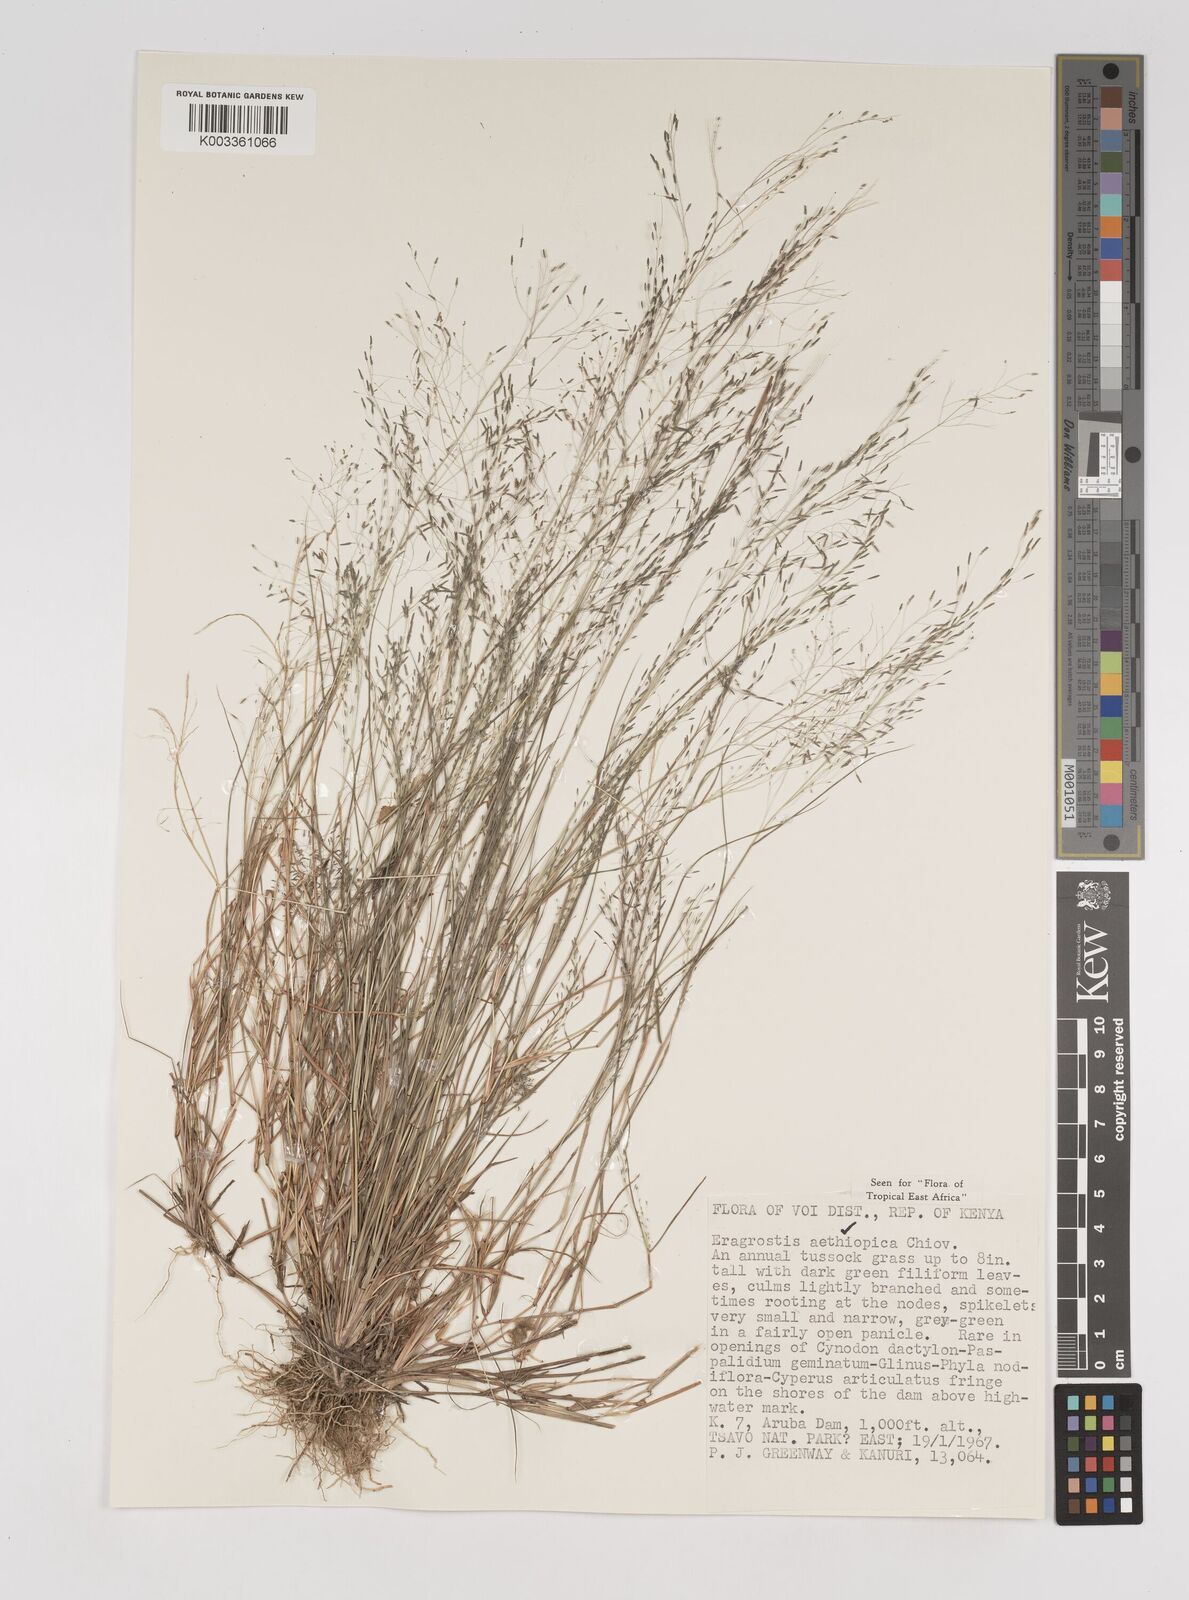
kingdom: Plantae
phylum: Tracheophyta
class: Liliopsida
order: Poales
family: Poaceae
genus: Eragrostis
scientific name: Eragrostis aethiopica
